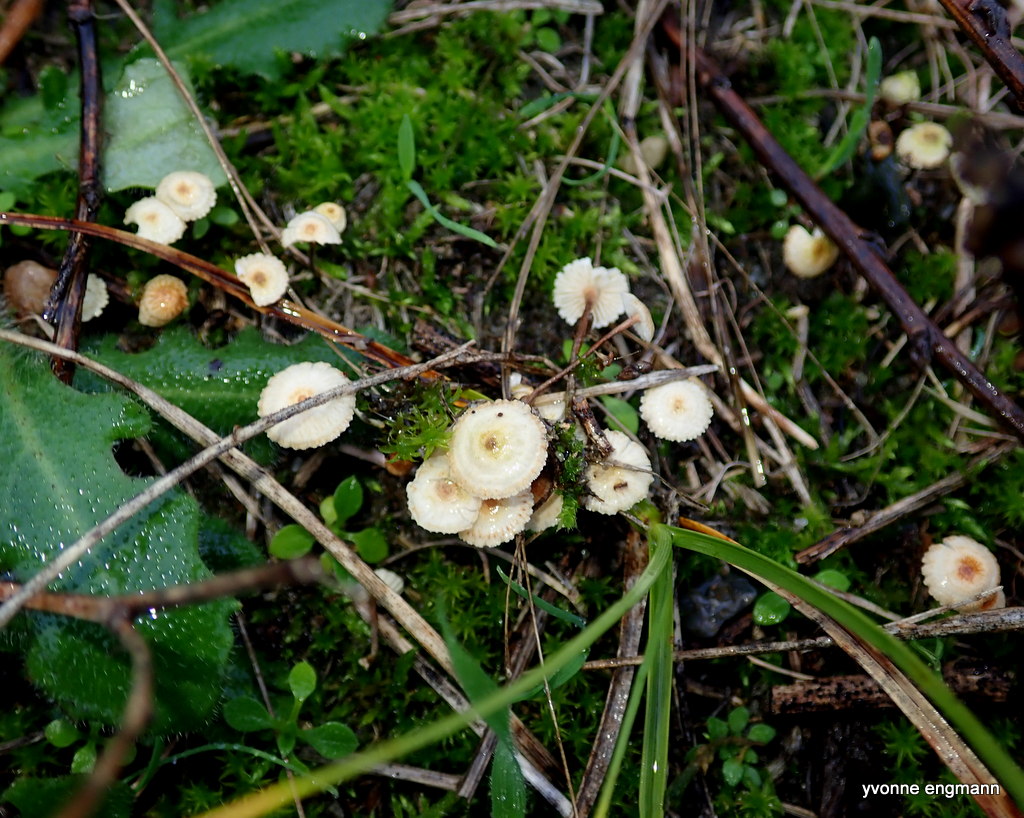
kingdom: Fungi
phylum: Basidiomycota
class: Agaricomycetes
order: Agaricales
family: Marasmiaceae
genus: Crinipellis
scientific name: Crinipellis scabella
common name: børstefod
